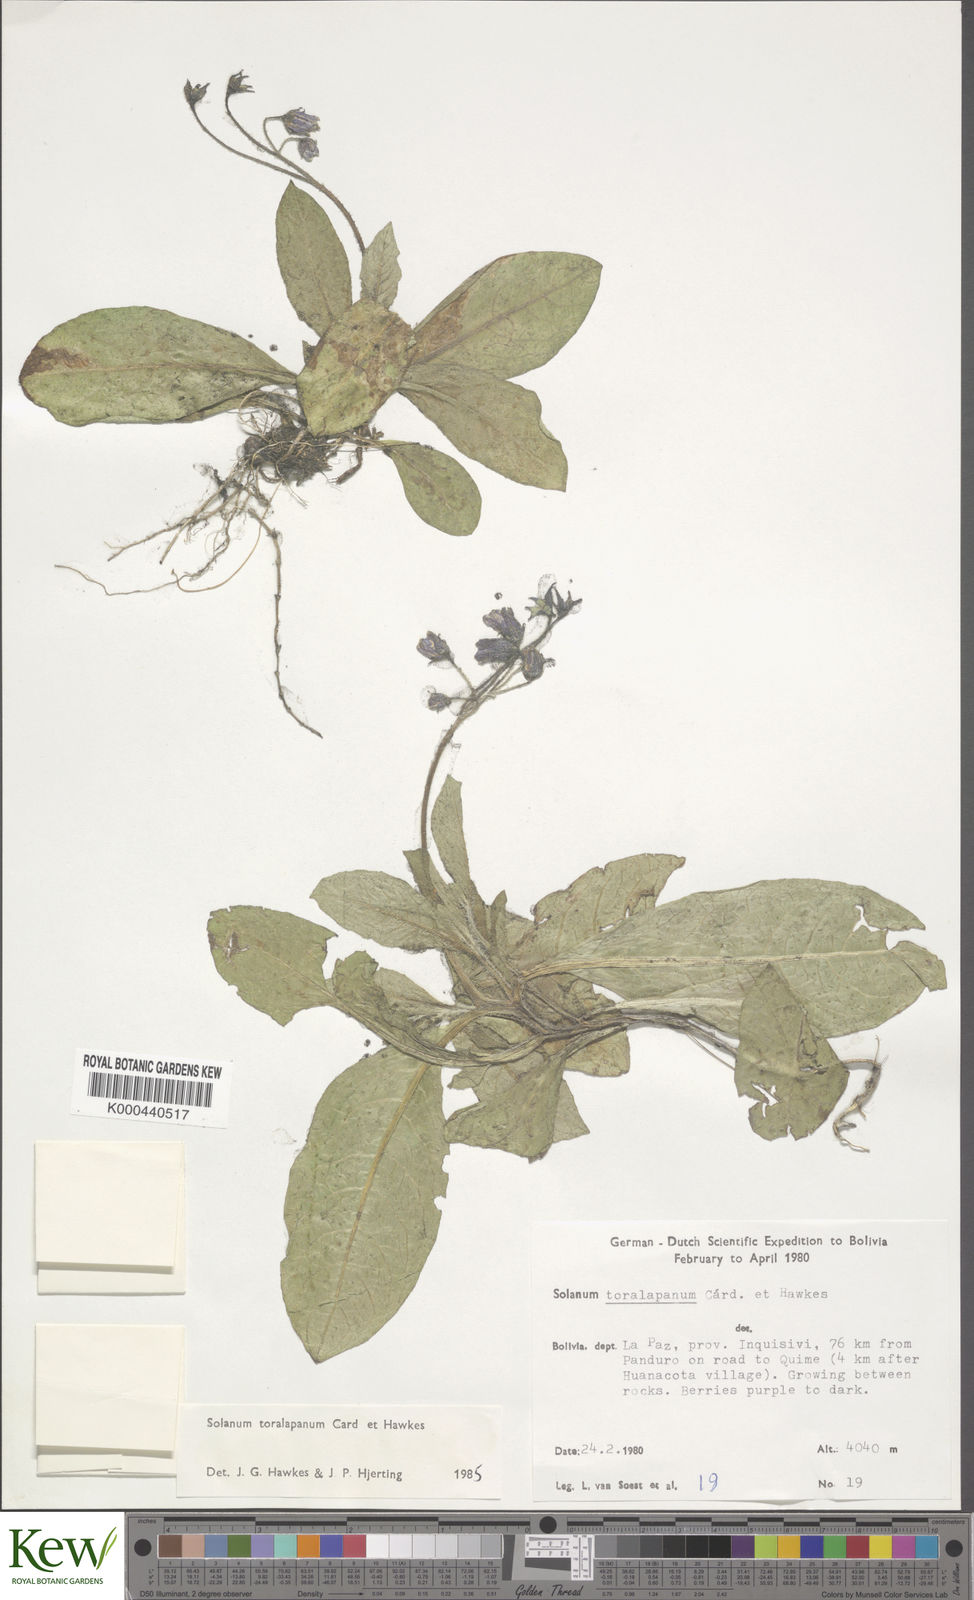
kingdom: Plantae
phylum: Tracheophyta
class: Magnoliopsida
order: Solanales
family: Solanaceae
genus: Solanum
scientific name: Solanum boliviense
